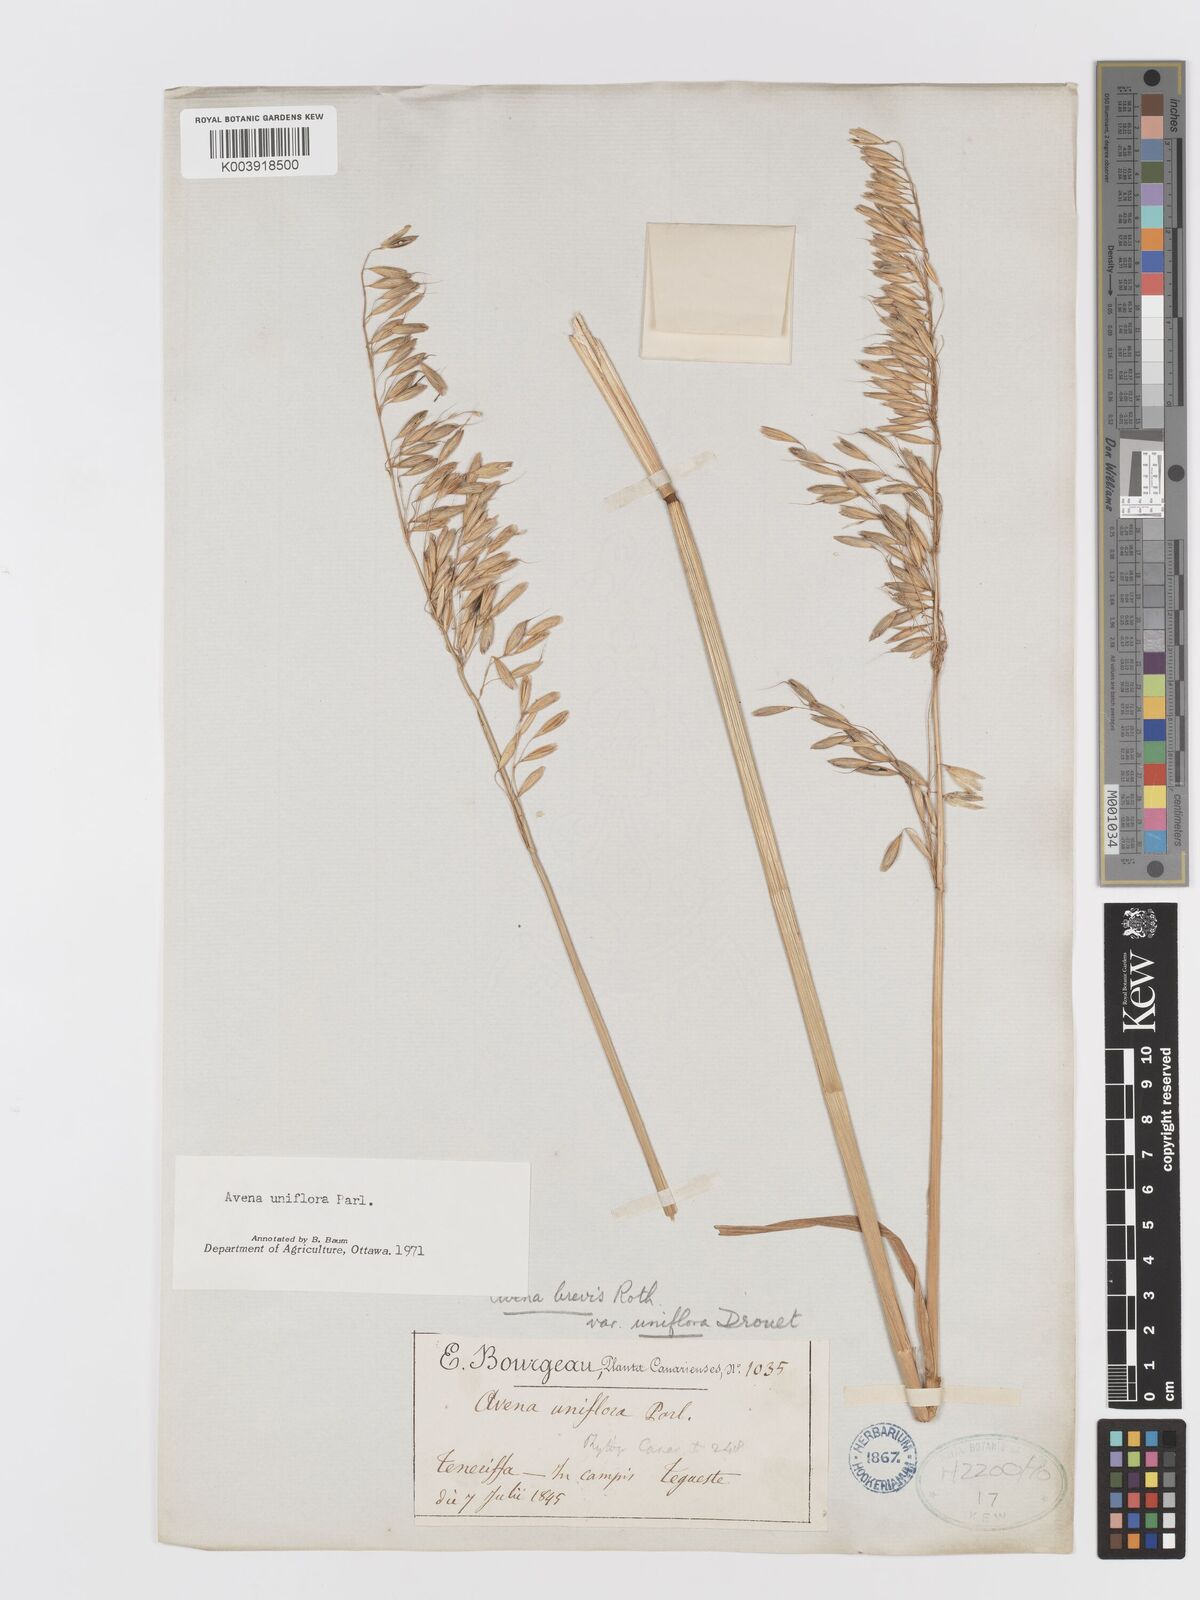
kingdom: Plantae
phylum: Tracheophyta
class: Liliopsida
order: Poales
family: Poaceae
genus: Avena
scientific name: Avena brevis
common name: Short oat
